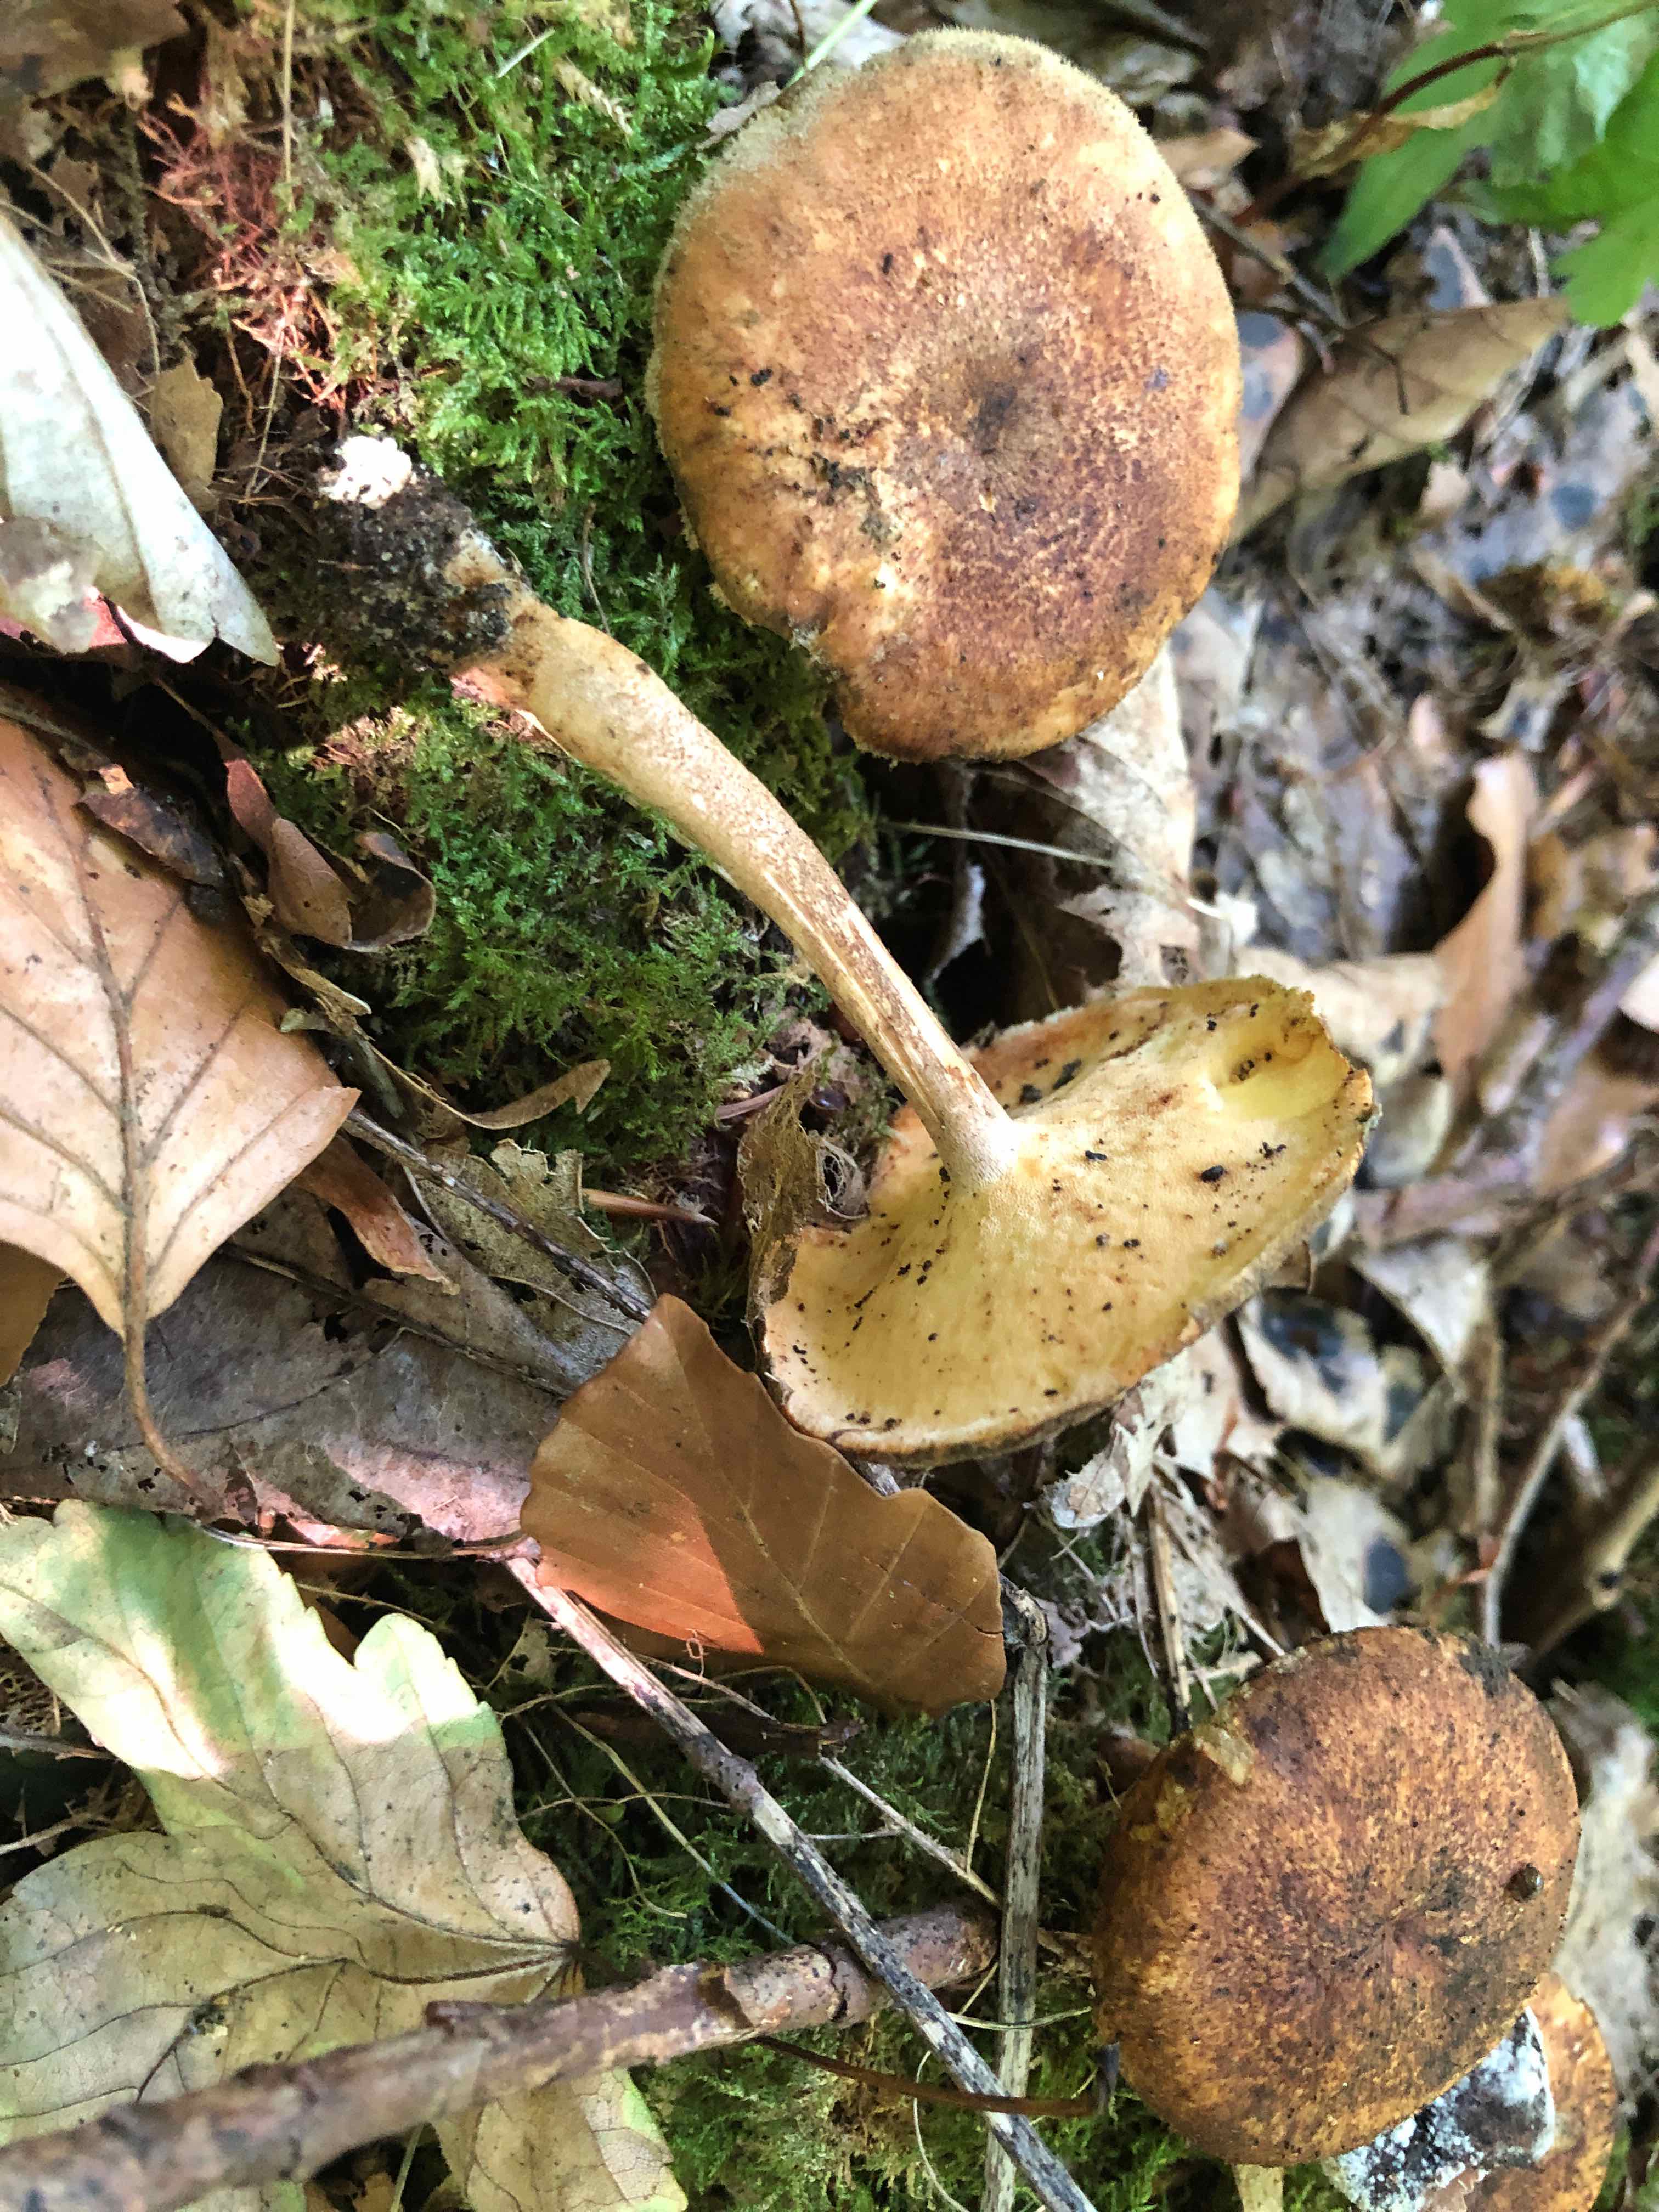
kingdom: Fungi
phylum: Basidiomycota
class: Agaricomycetes
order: Polyporales
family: Polyporaceae
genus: Lentinus
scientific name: Lentinus substrictus
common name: forårs-stilkporesvamp
